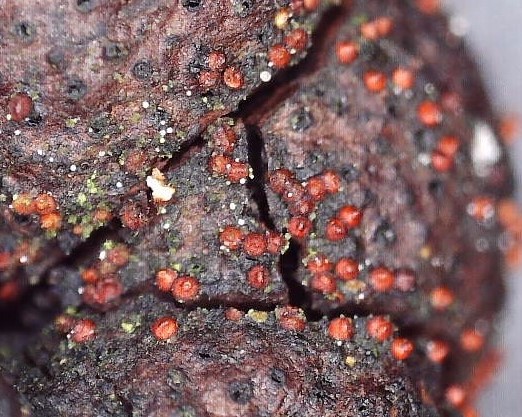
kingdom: Fungi
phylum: Ascomycota
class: Sordariomycetes
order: Hypocreales
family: Nectriaceae
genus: Cosmospora
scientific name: Cosmospora arxii
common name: kuljordbær-cinnobersvamp
